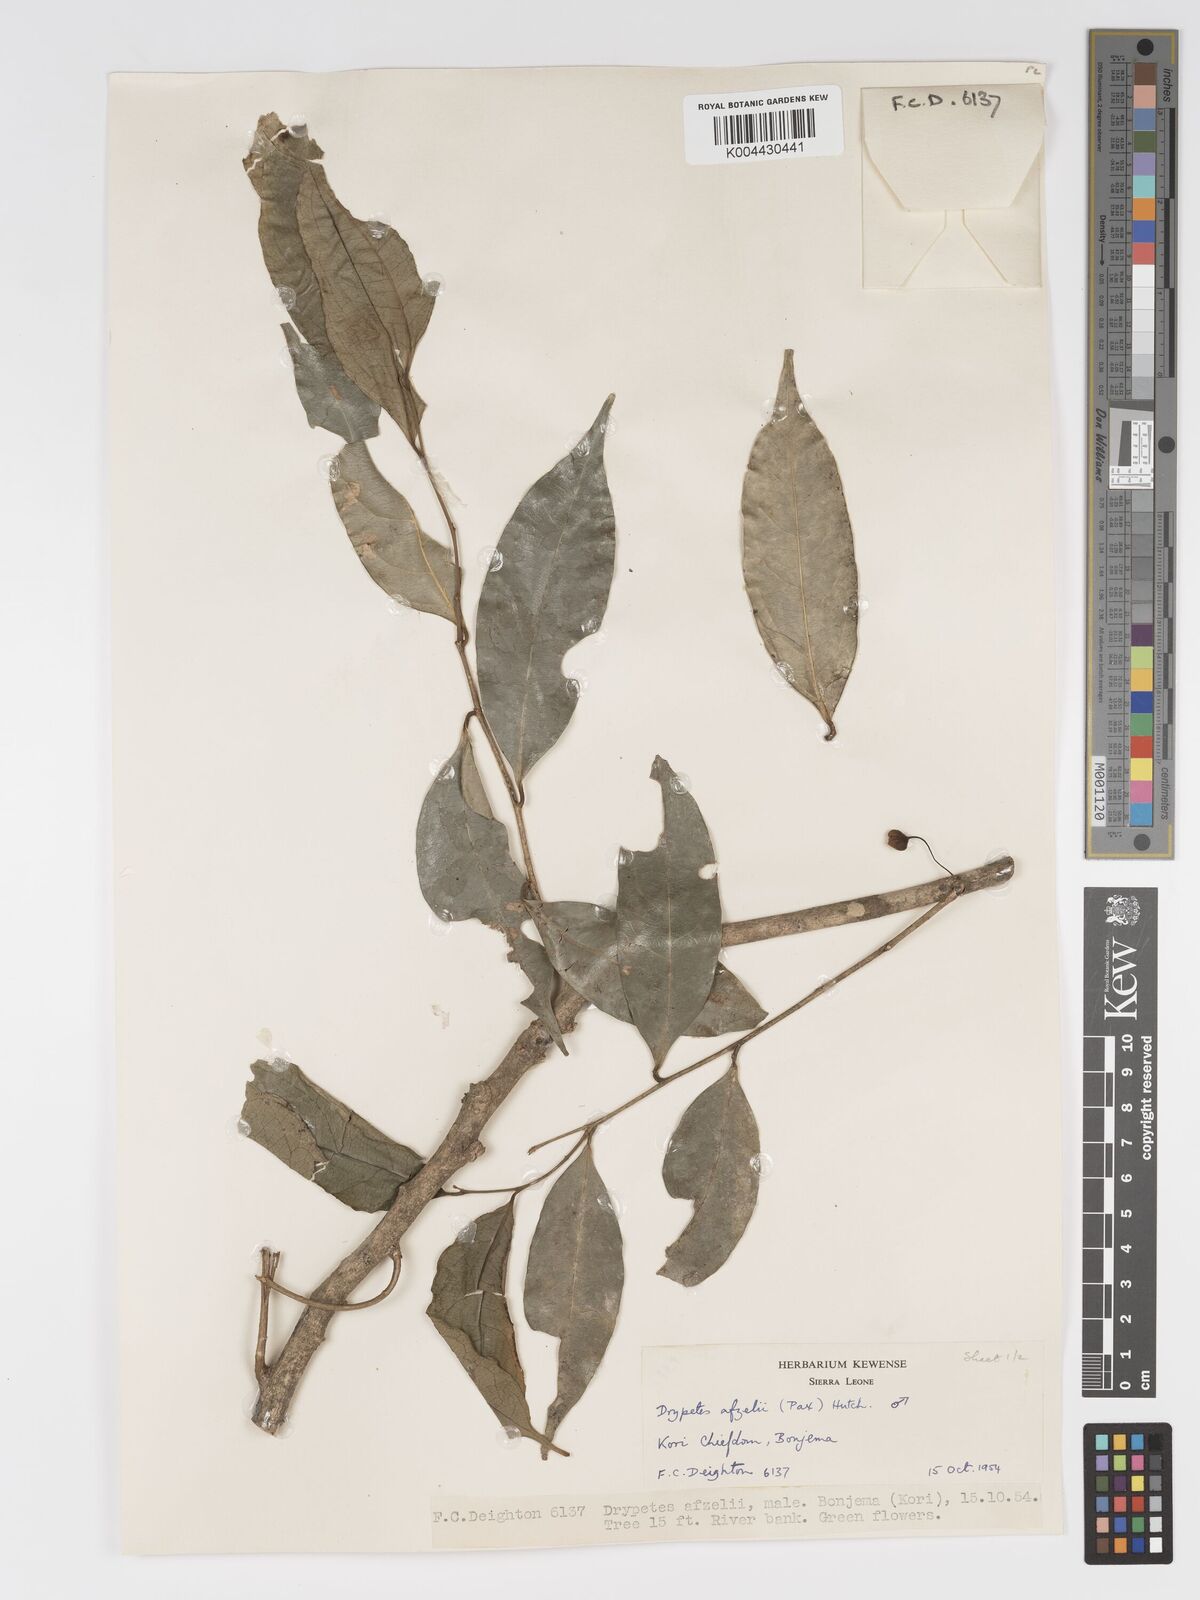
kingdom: Plantae
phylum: Tracheophyta
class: Magnoliopsida
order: Malpighiales
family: Putranjivaceae
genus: Drypetes
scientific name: Drypetes afzelii
